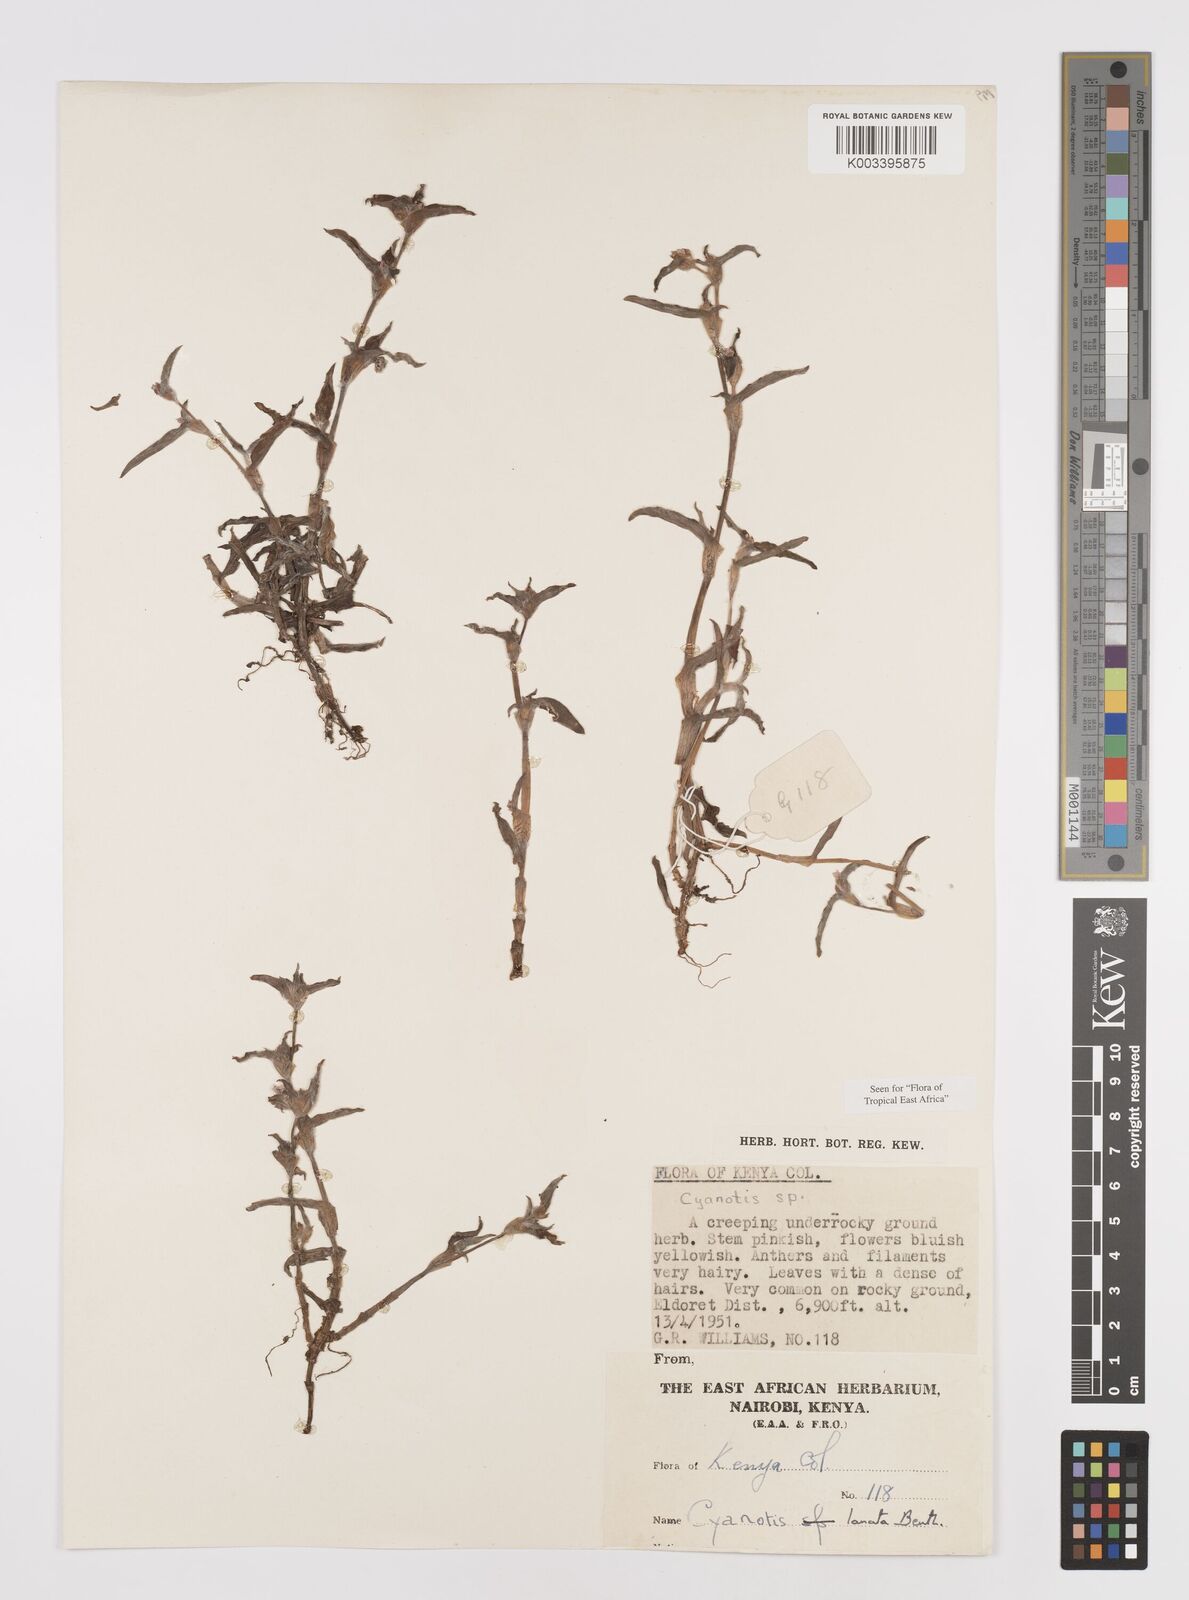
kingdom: Plantae
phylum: Tracheophyta
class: Liliopsida
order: Commelinales
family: Commelinaceae
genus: Cyanotis
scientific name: Cyanotis lanata
